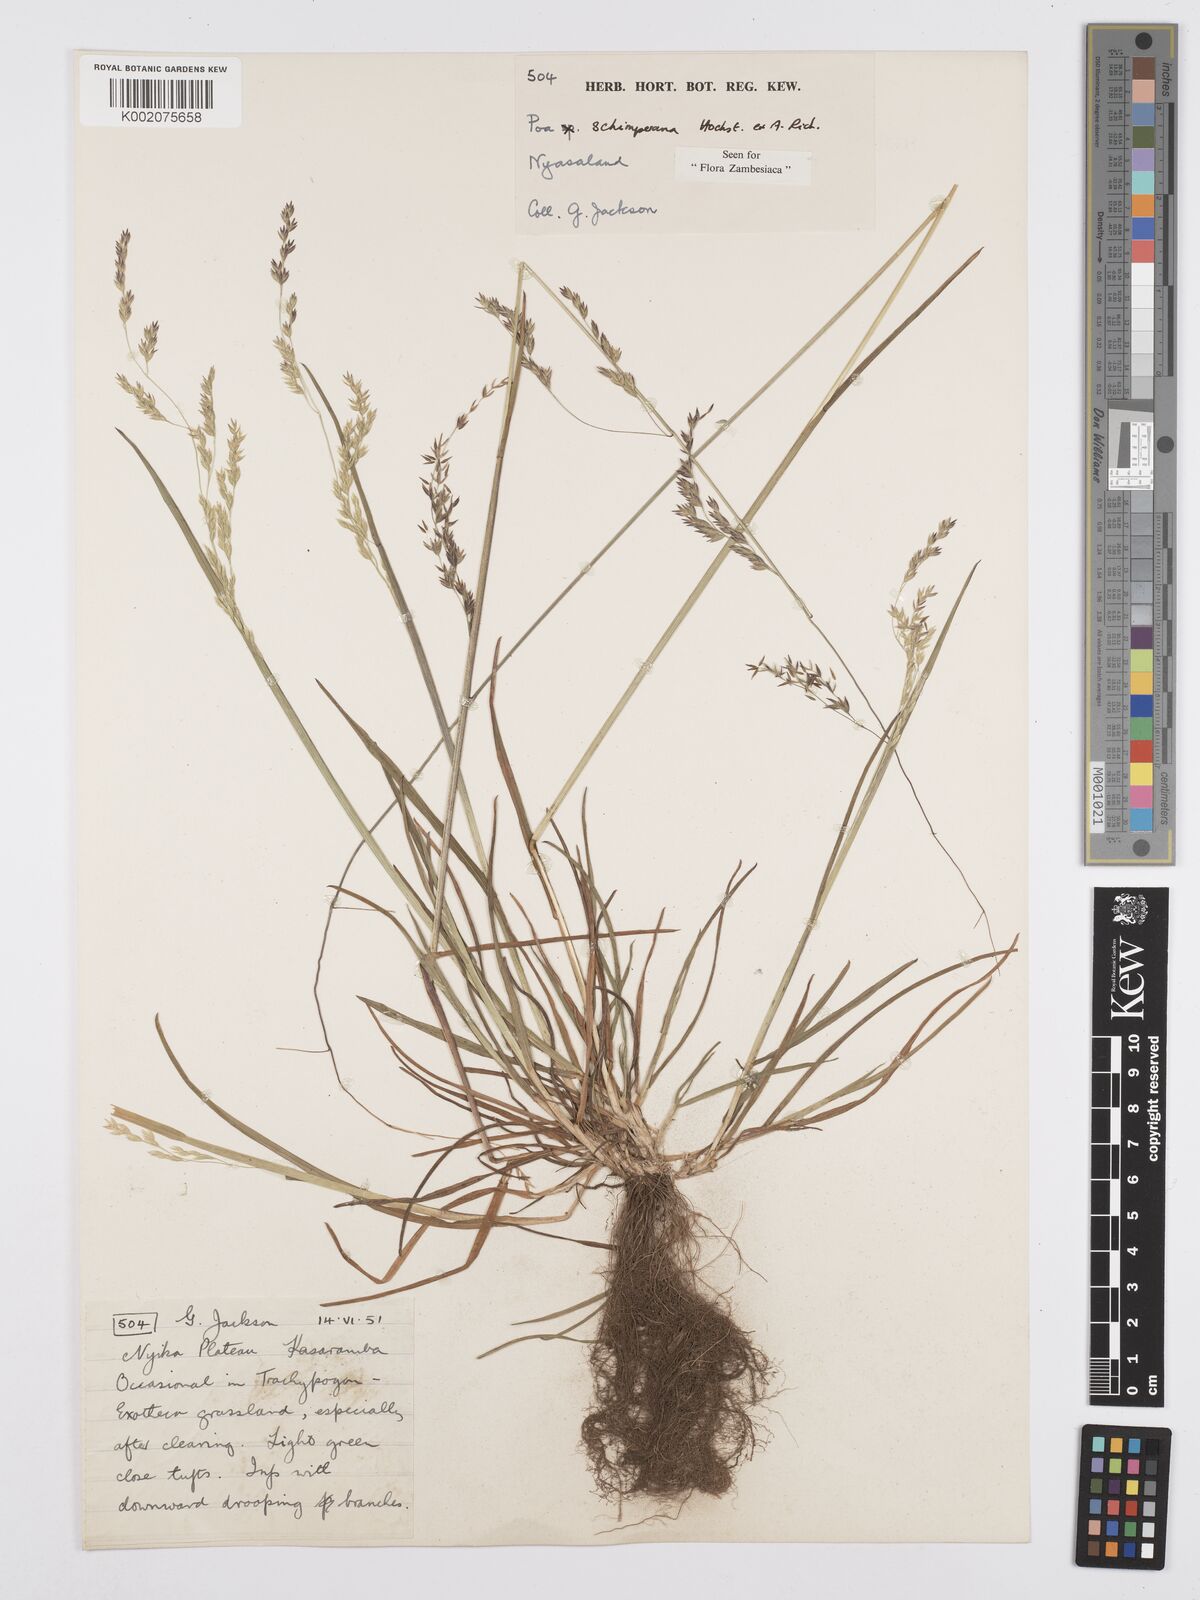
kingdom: Plantae
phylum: Tracheophyta
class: Liliopsida
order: Poales
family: Poaceae
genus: Poa
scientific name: Poa schimperiana
